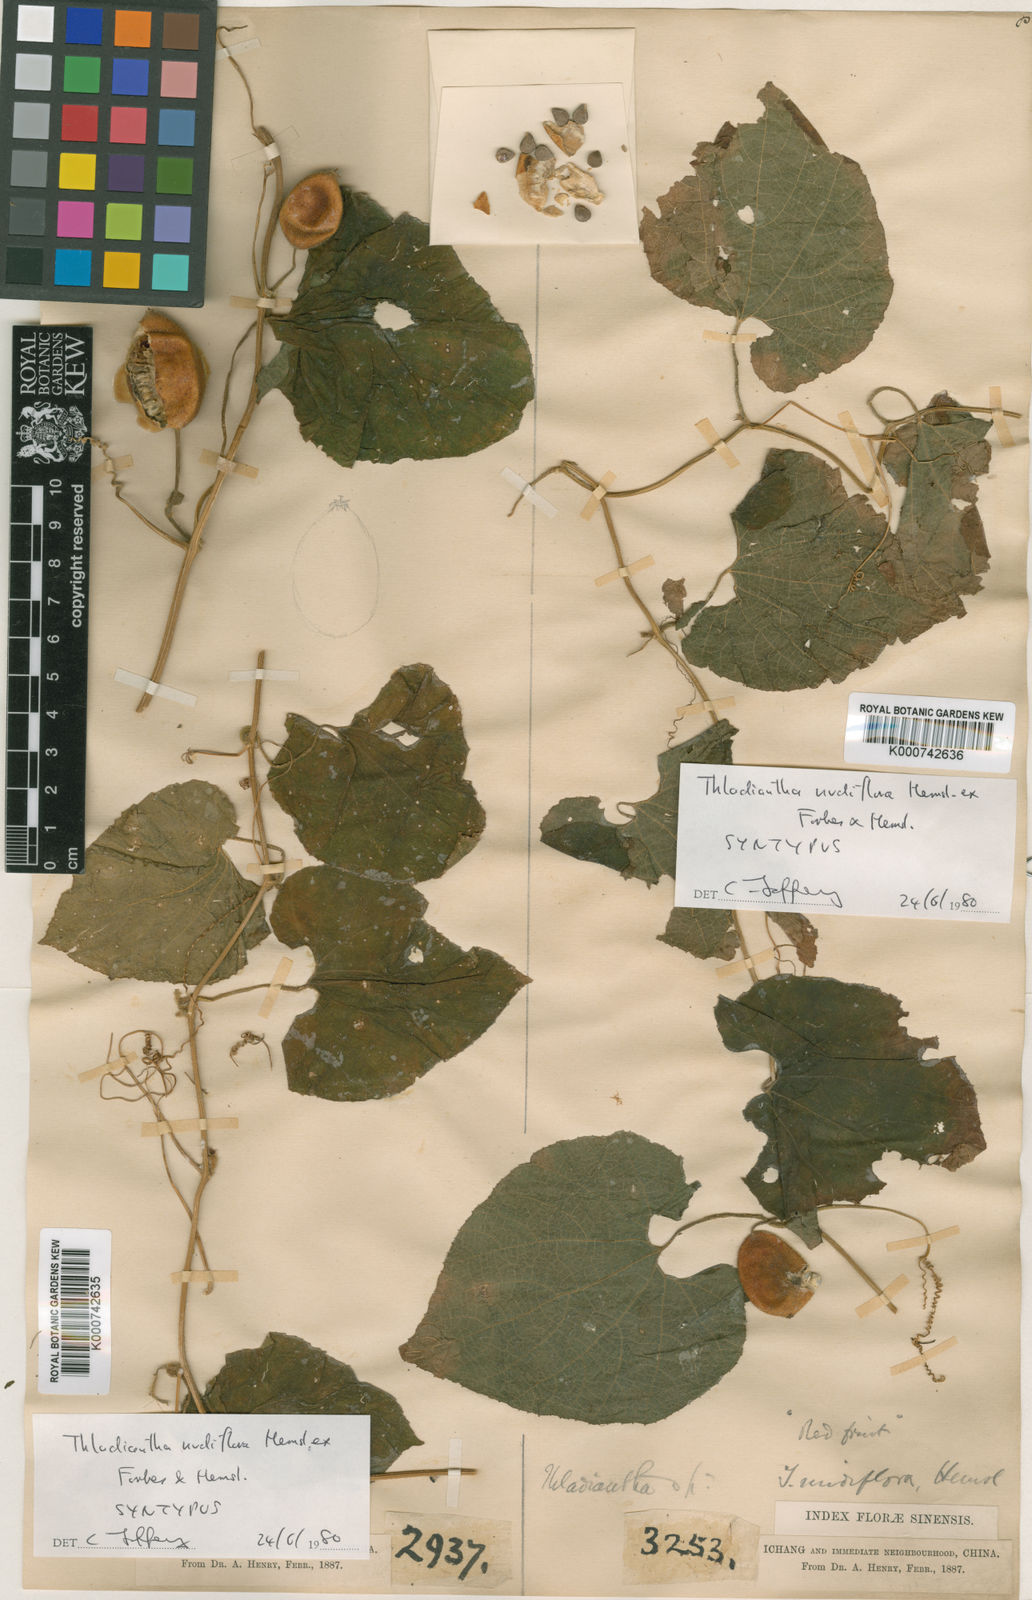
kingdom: Plantae
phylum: Tracheophyta
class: Magnoliopsida
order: Cucurbitales
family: Cucurbitaceae
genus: Thladiantha
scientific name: Thladiantha nudiflora
